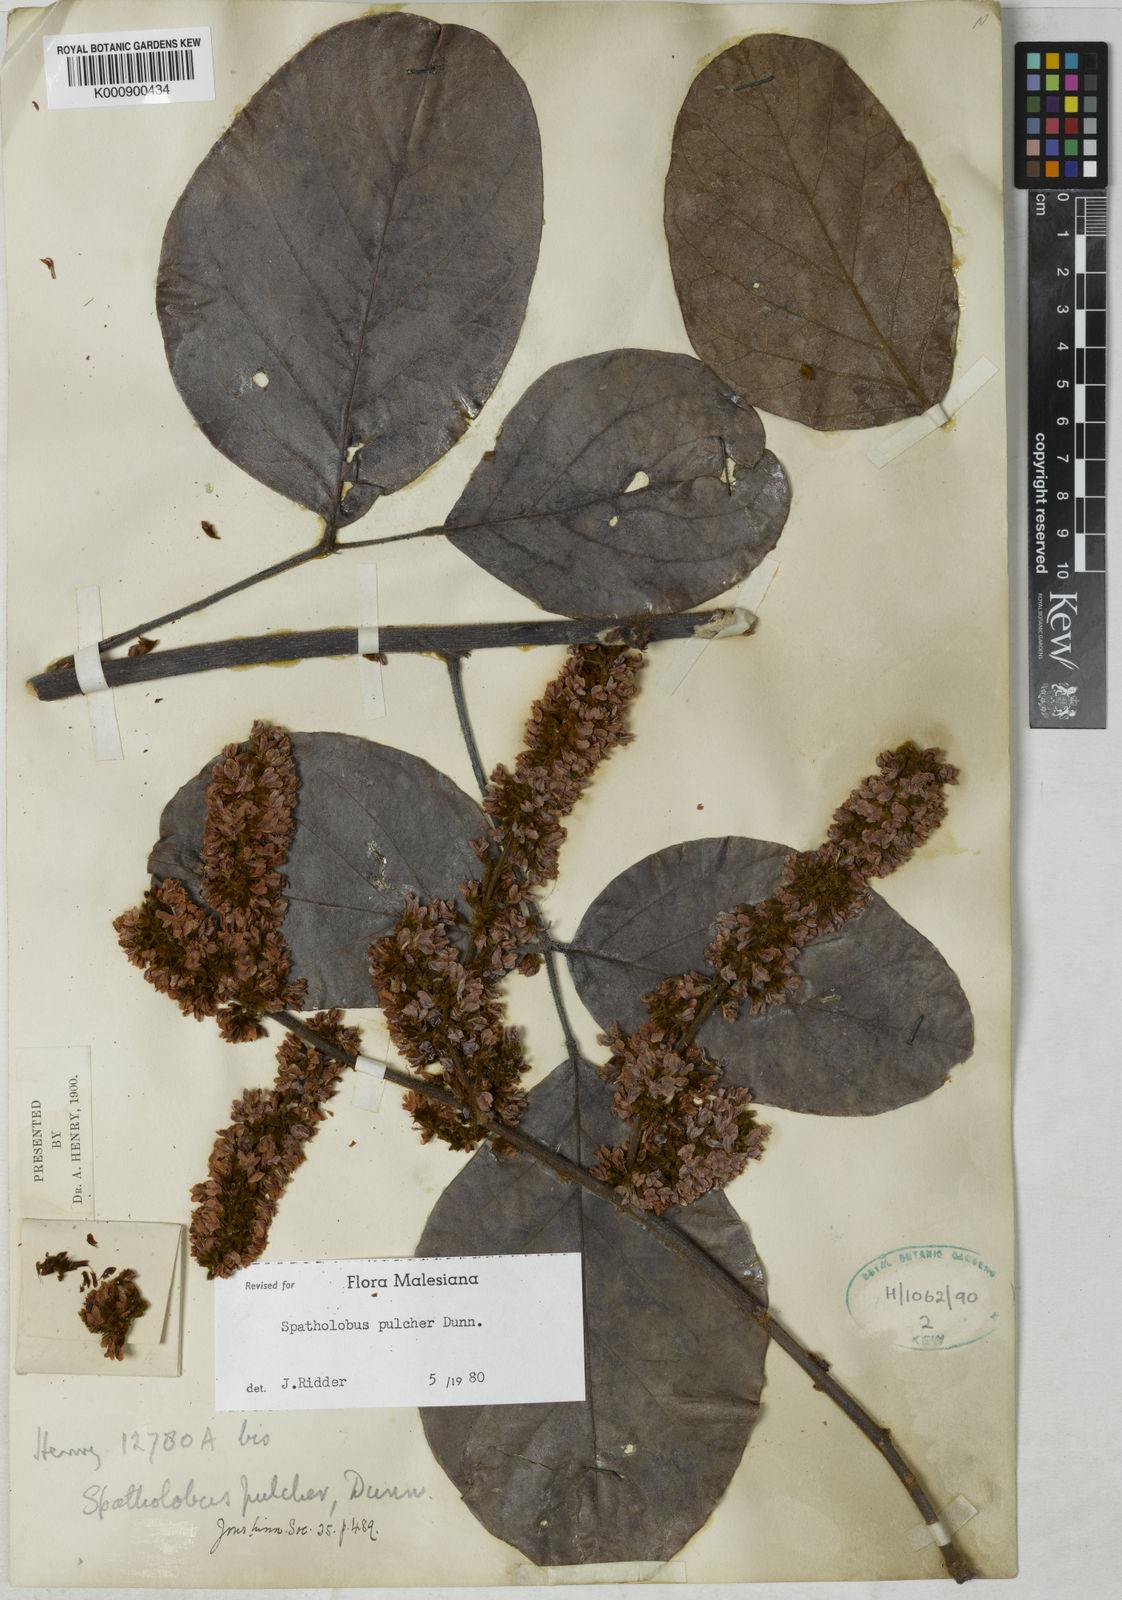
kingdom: Plantae
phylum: Tracheophyta
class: Magnoliopsida
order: Fabales
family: Fabaceae
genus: Spatholobus
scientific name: Spatholobus pulcher
